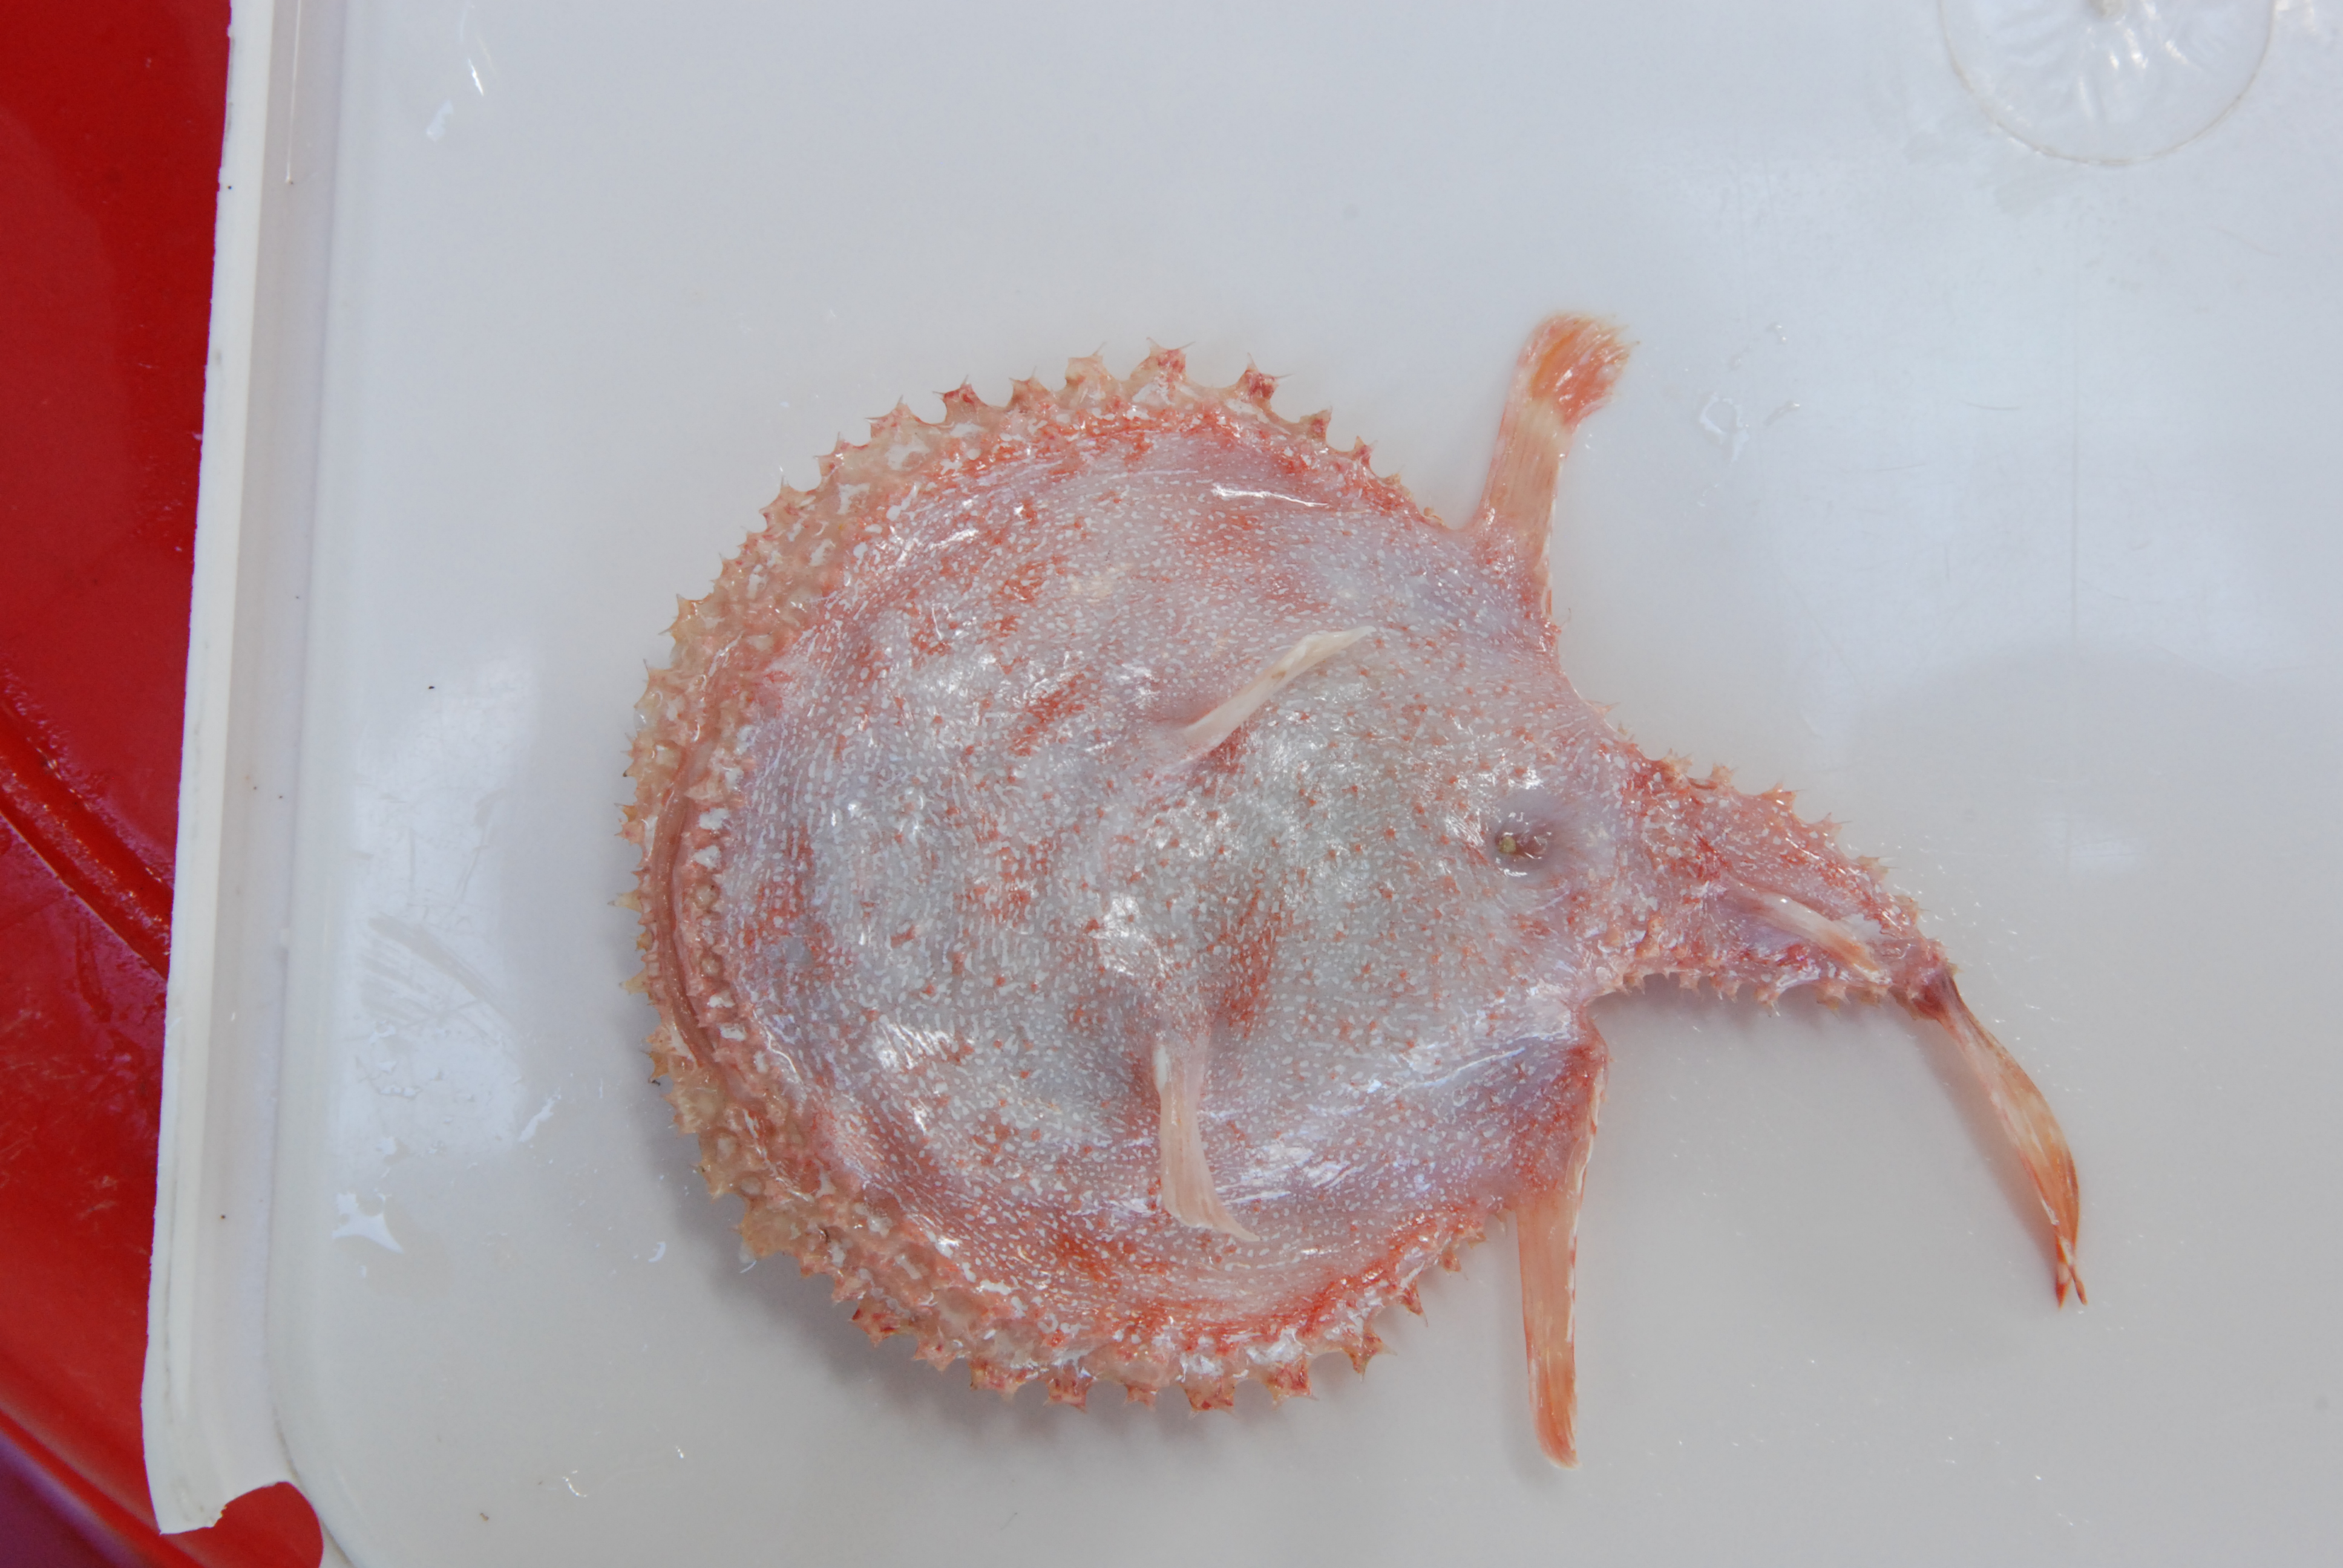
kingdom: Animalia
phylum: Chordata
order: Lophiiformes
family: Ogcocephalidae
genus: Halieutaea
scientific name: Halieutaea indica
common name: Indian handfish
